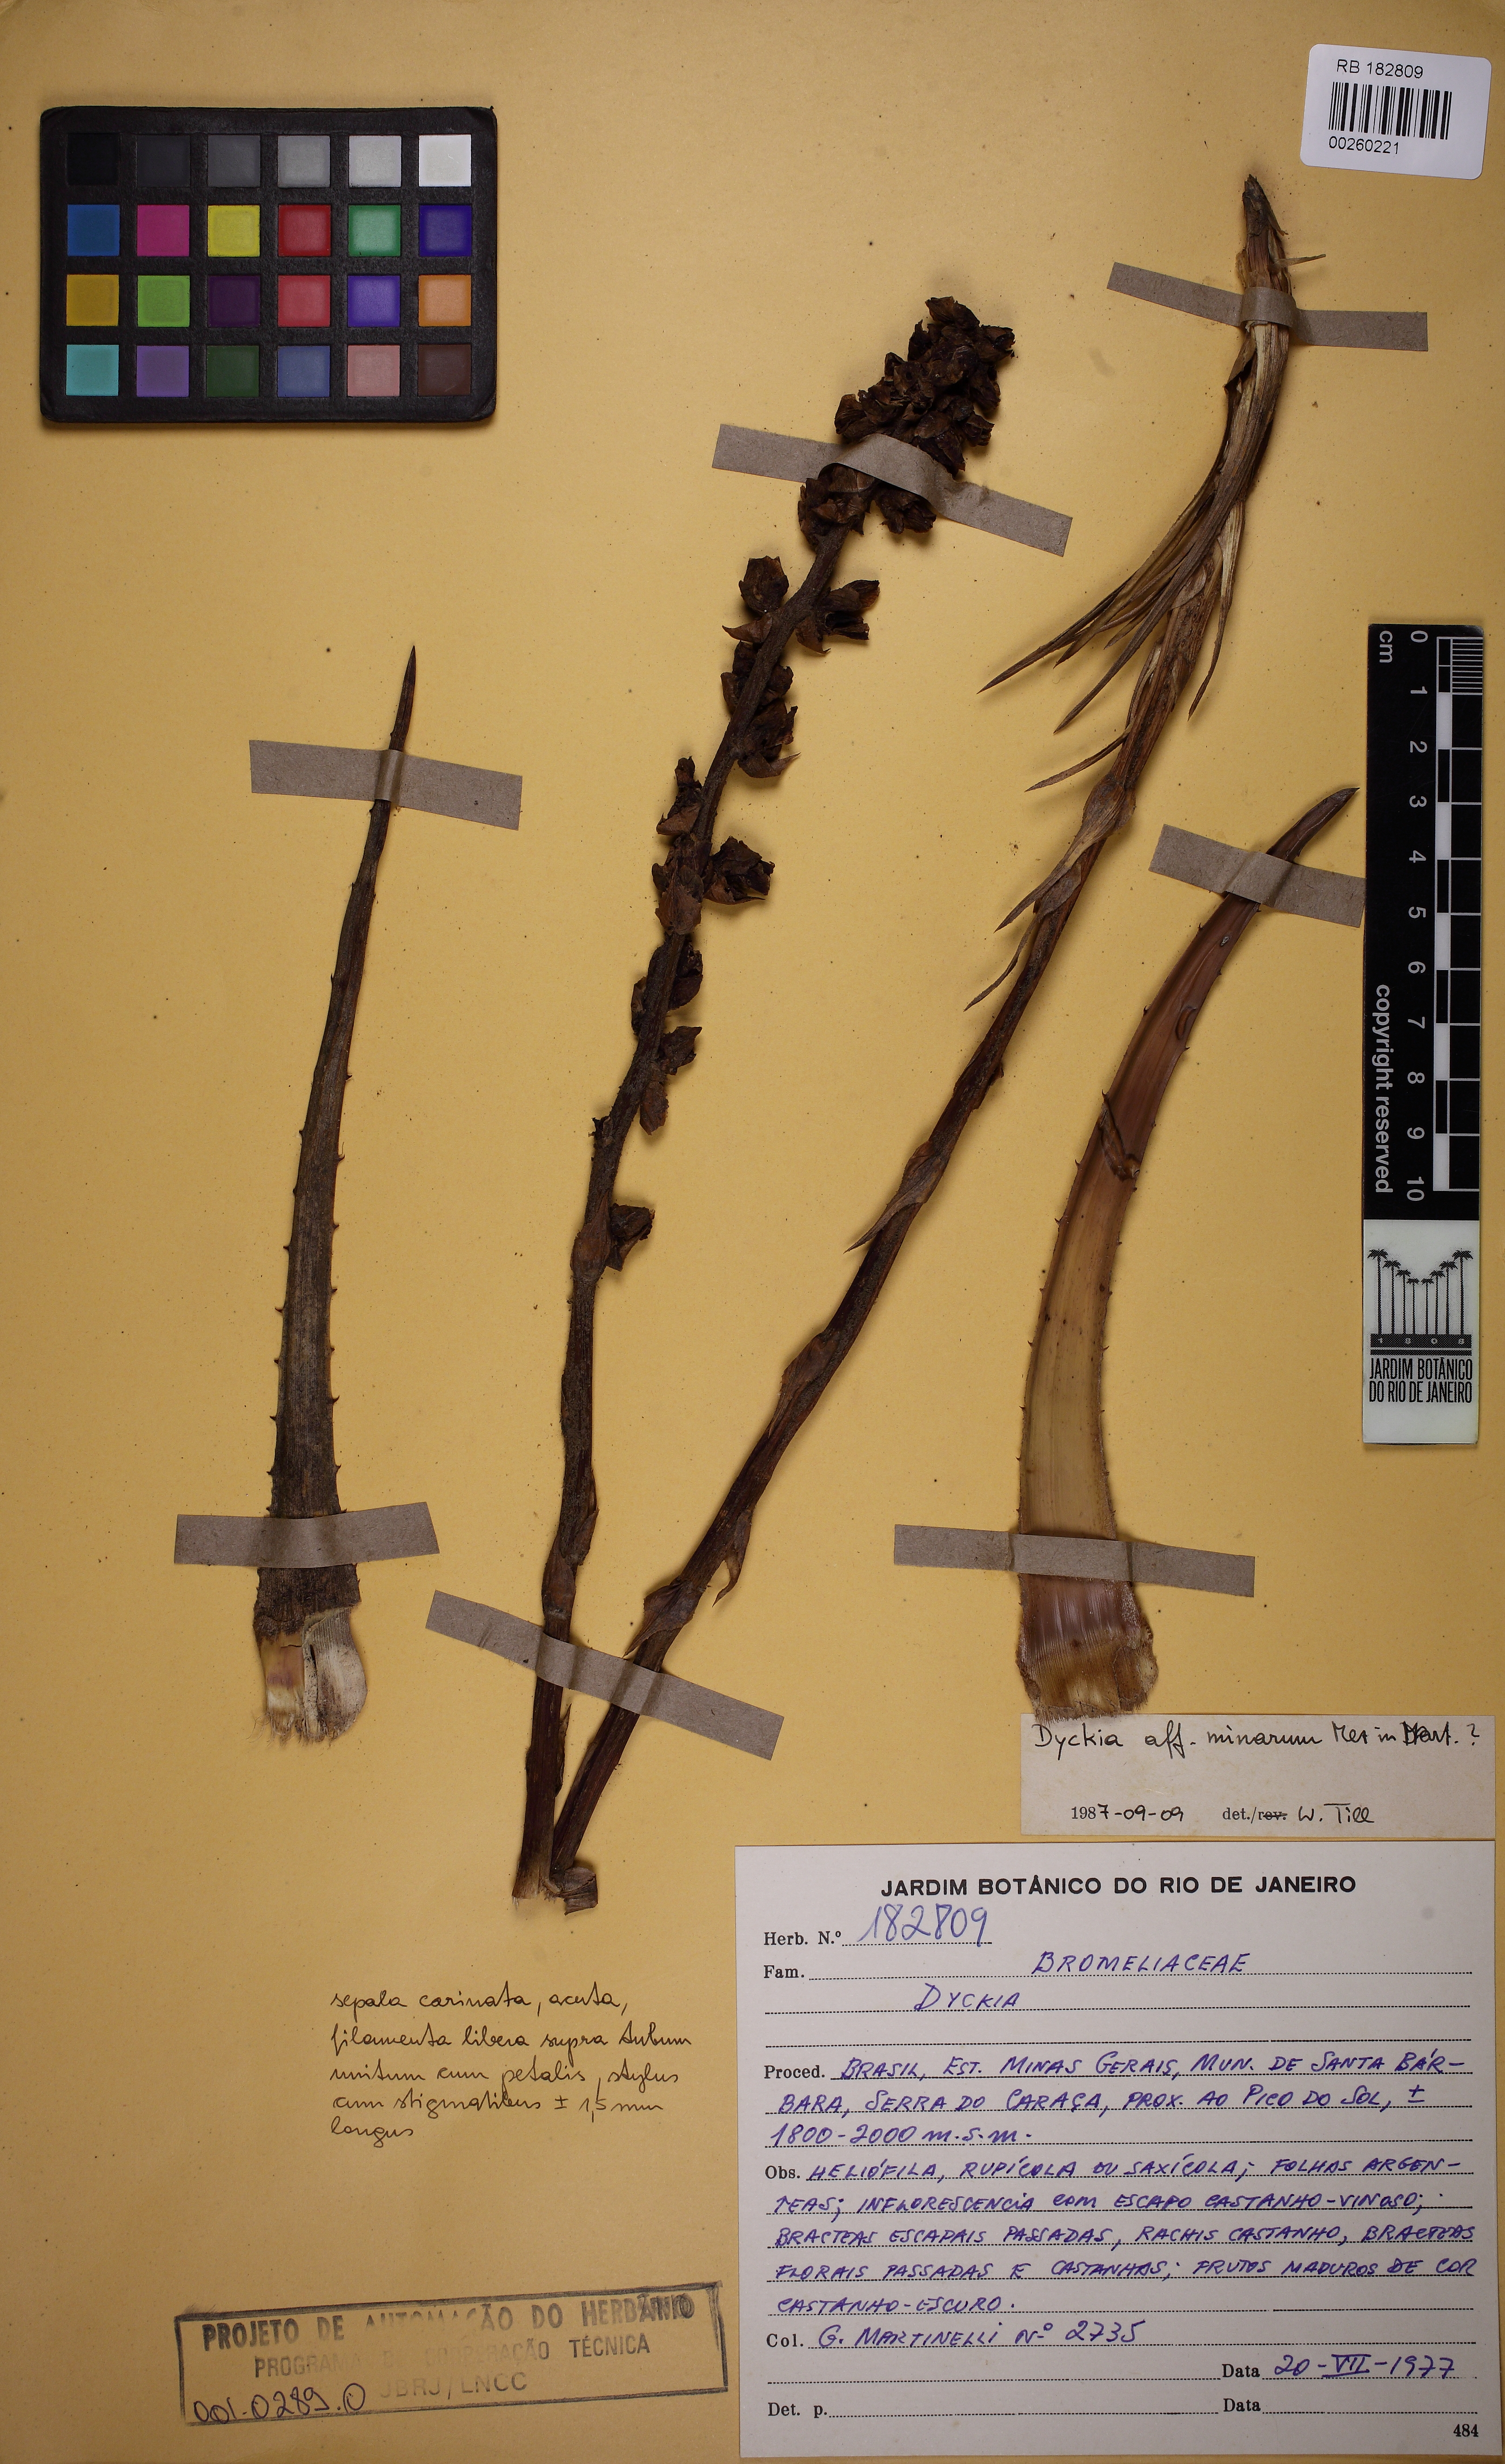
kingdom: Plantae
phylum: Tracheophyta
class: Liliopsida
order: Poales
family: Bromeliaceae
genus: Dyckia
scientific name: Dyckia minarum
